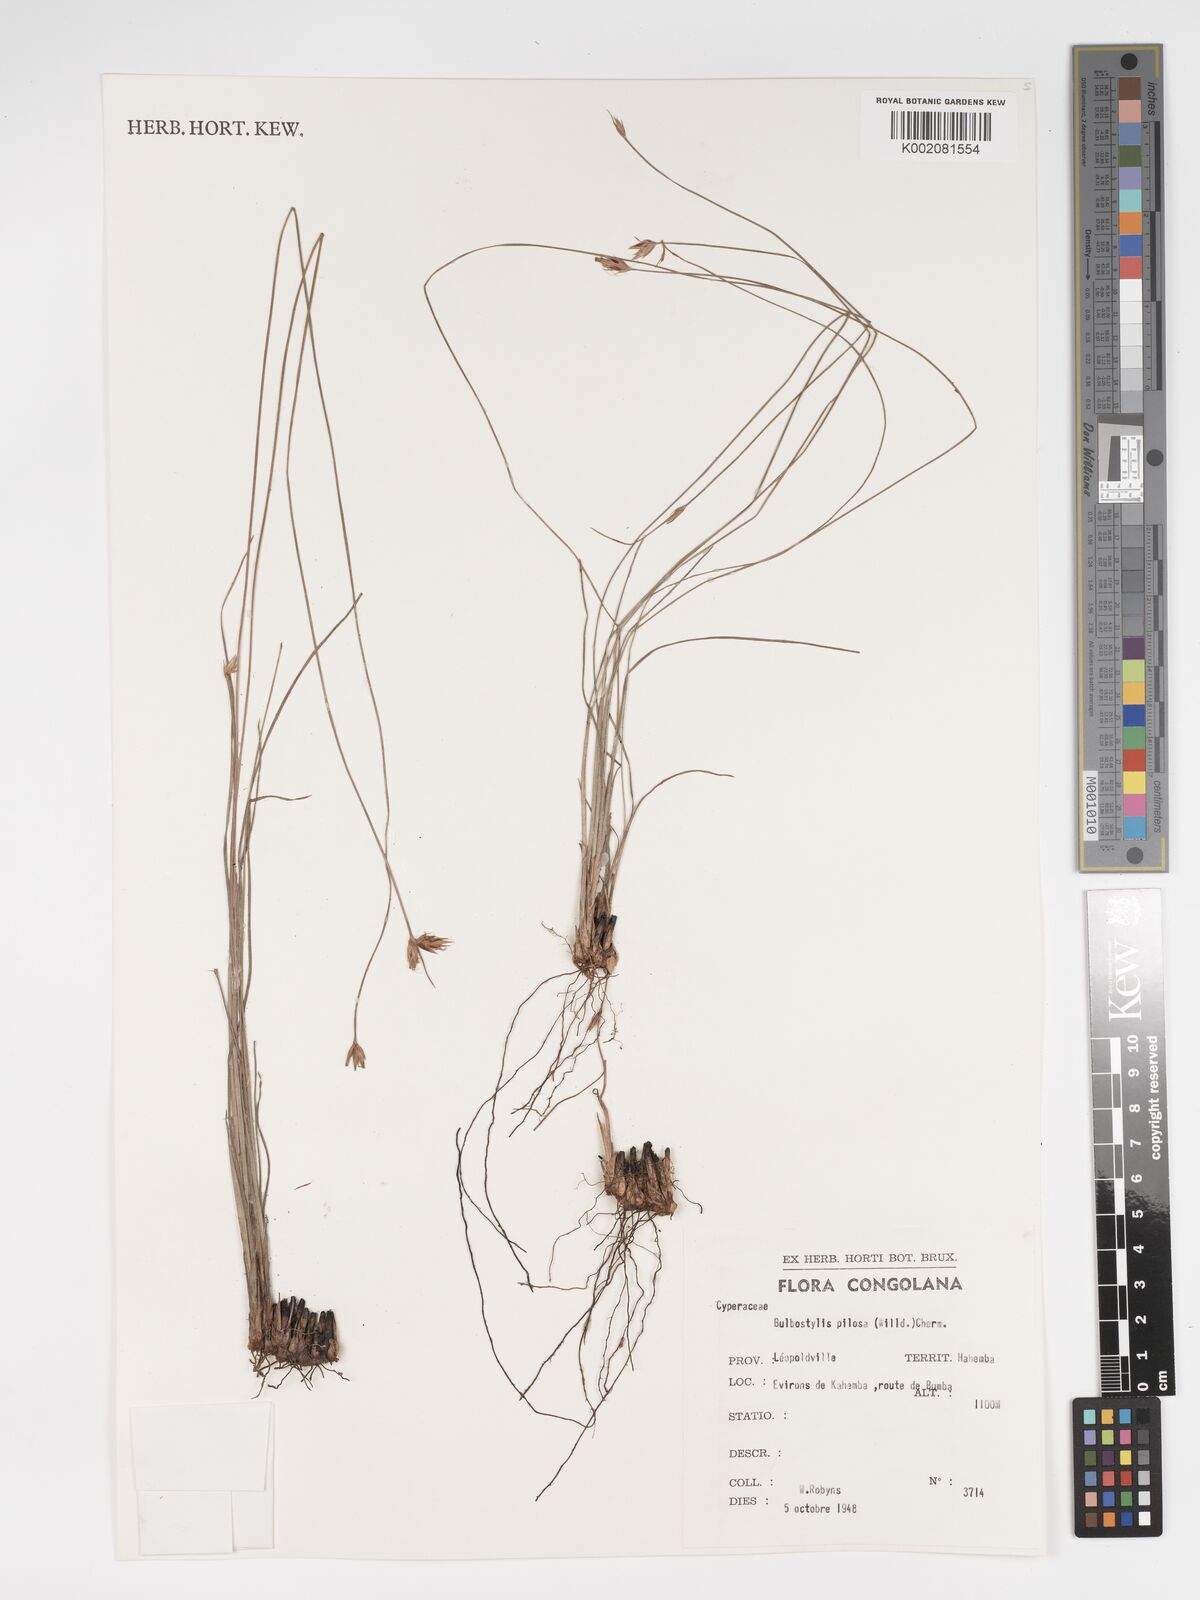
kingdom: Plantae
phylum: Tracheophyta
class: Liliopsida
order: Poales
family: Cyperaceae
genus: Bulbostylis
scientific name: Bulbostylis pilosa
